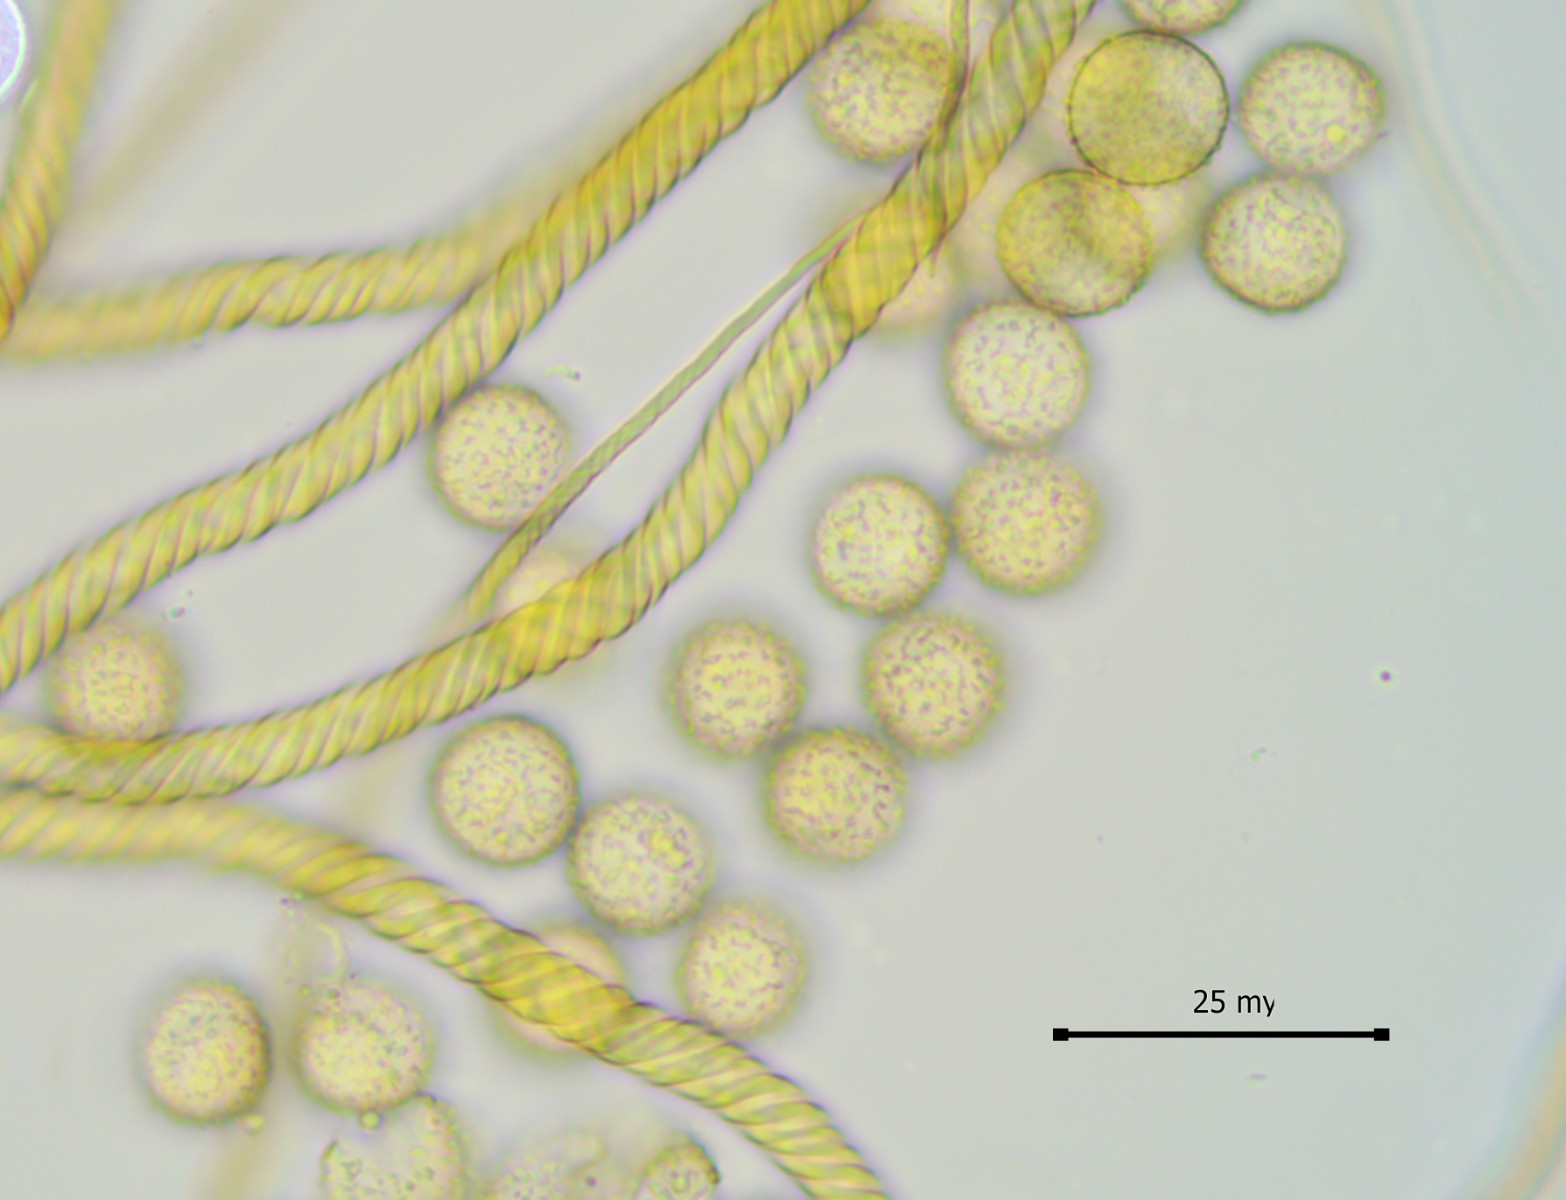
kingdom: Protozoa
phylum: Mycetozoa
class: Myxomycetes
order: Trichiales
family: Trichiaceae
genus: Trichia
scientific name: Trichia crateriformis
